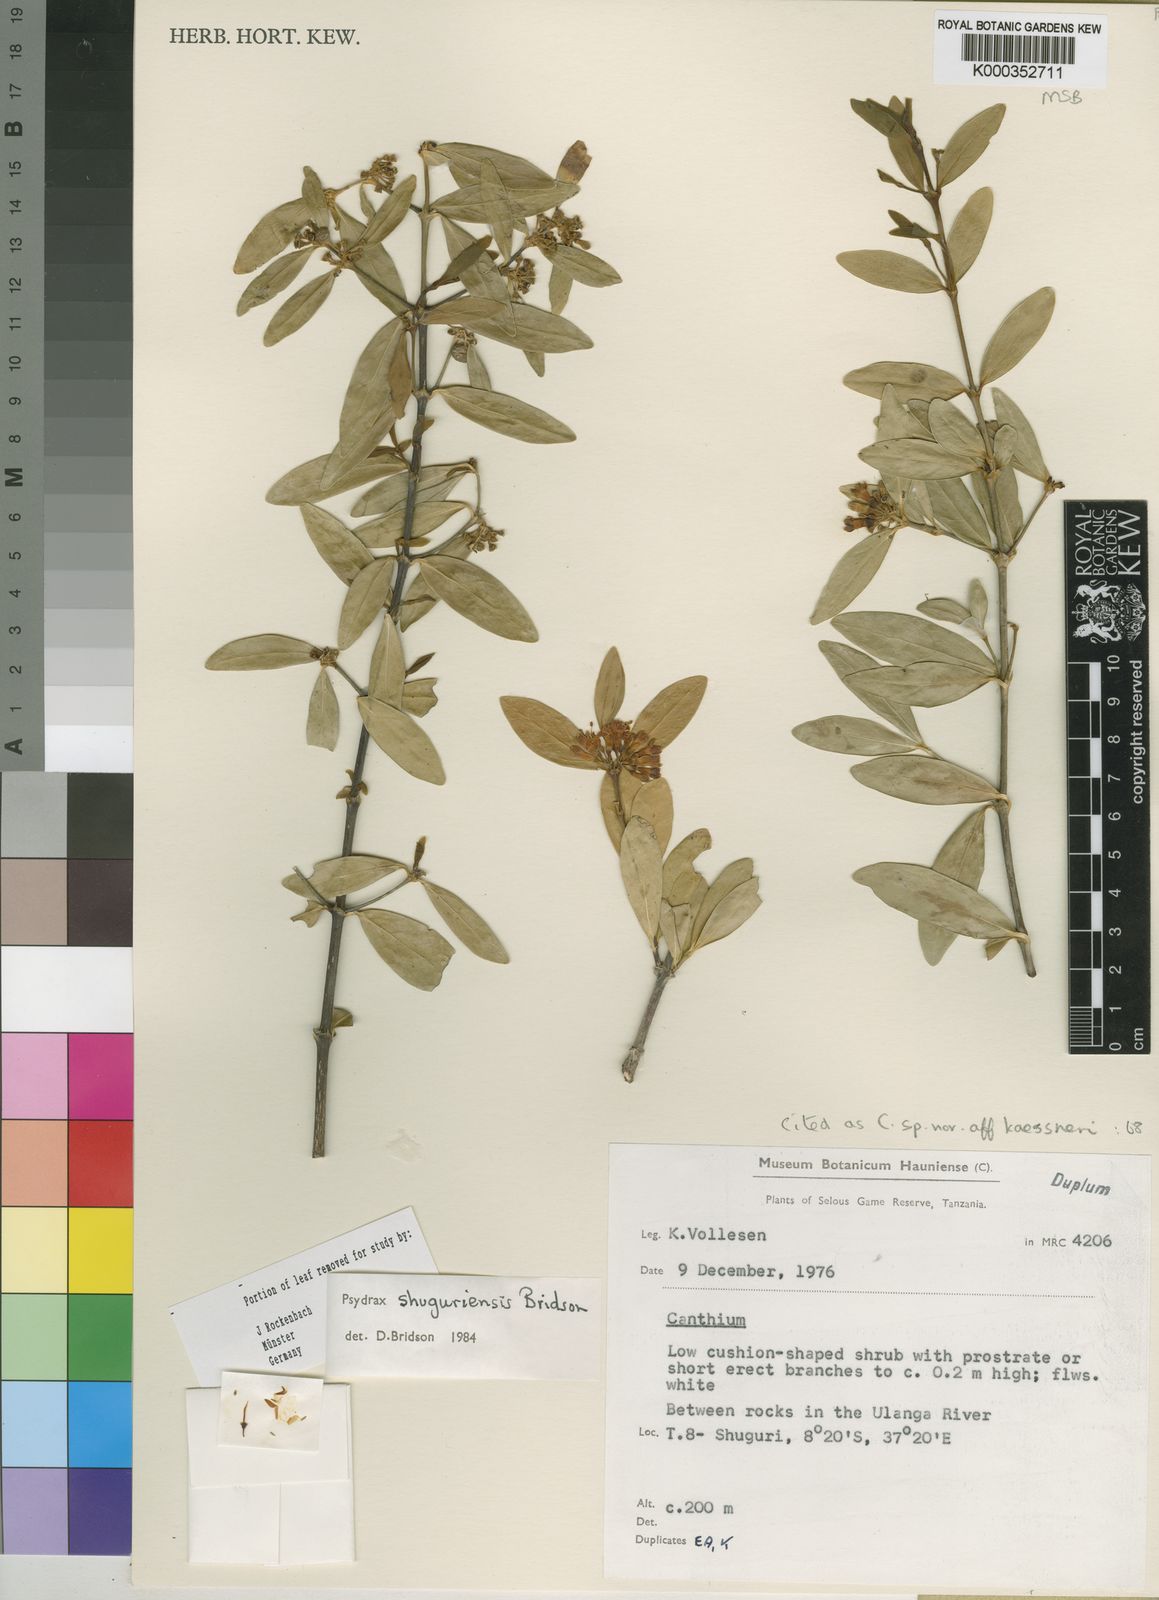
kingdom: Plantae
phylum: Tracheophyta
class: Magnoliopsida
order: Gentianales
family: Rubiaceae
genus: Psydrax
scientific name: Psydrax shuguriensis
